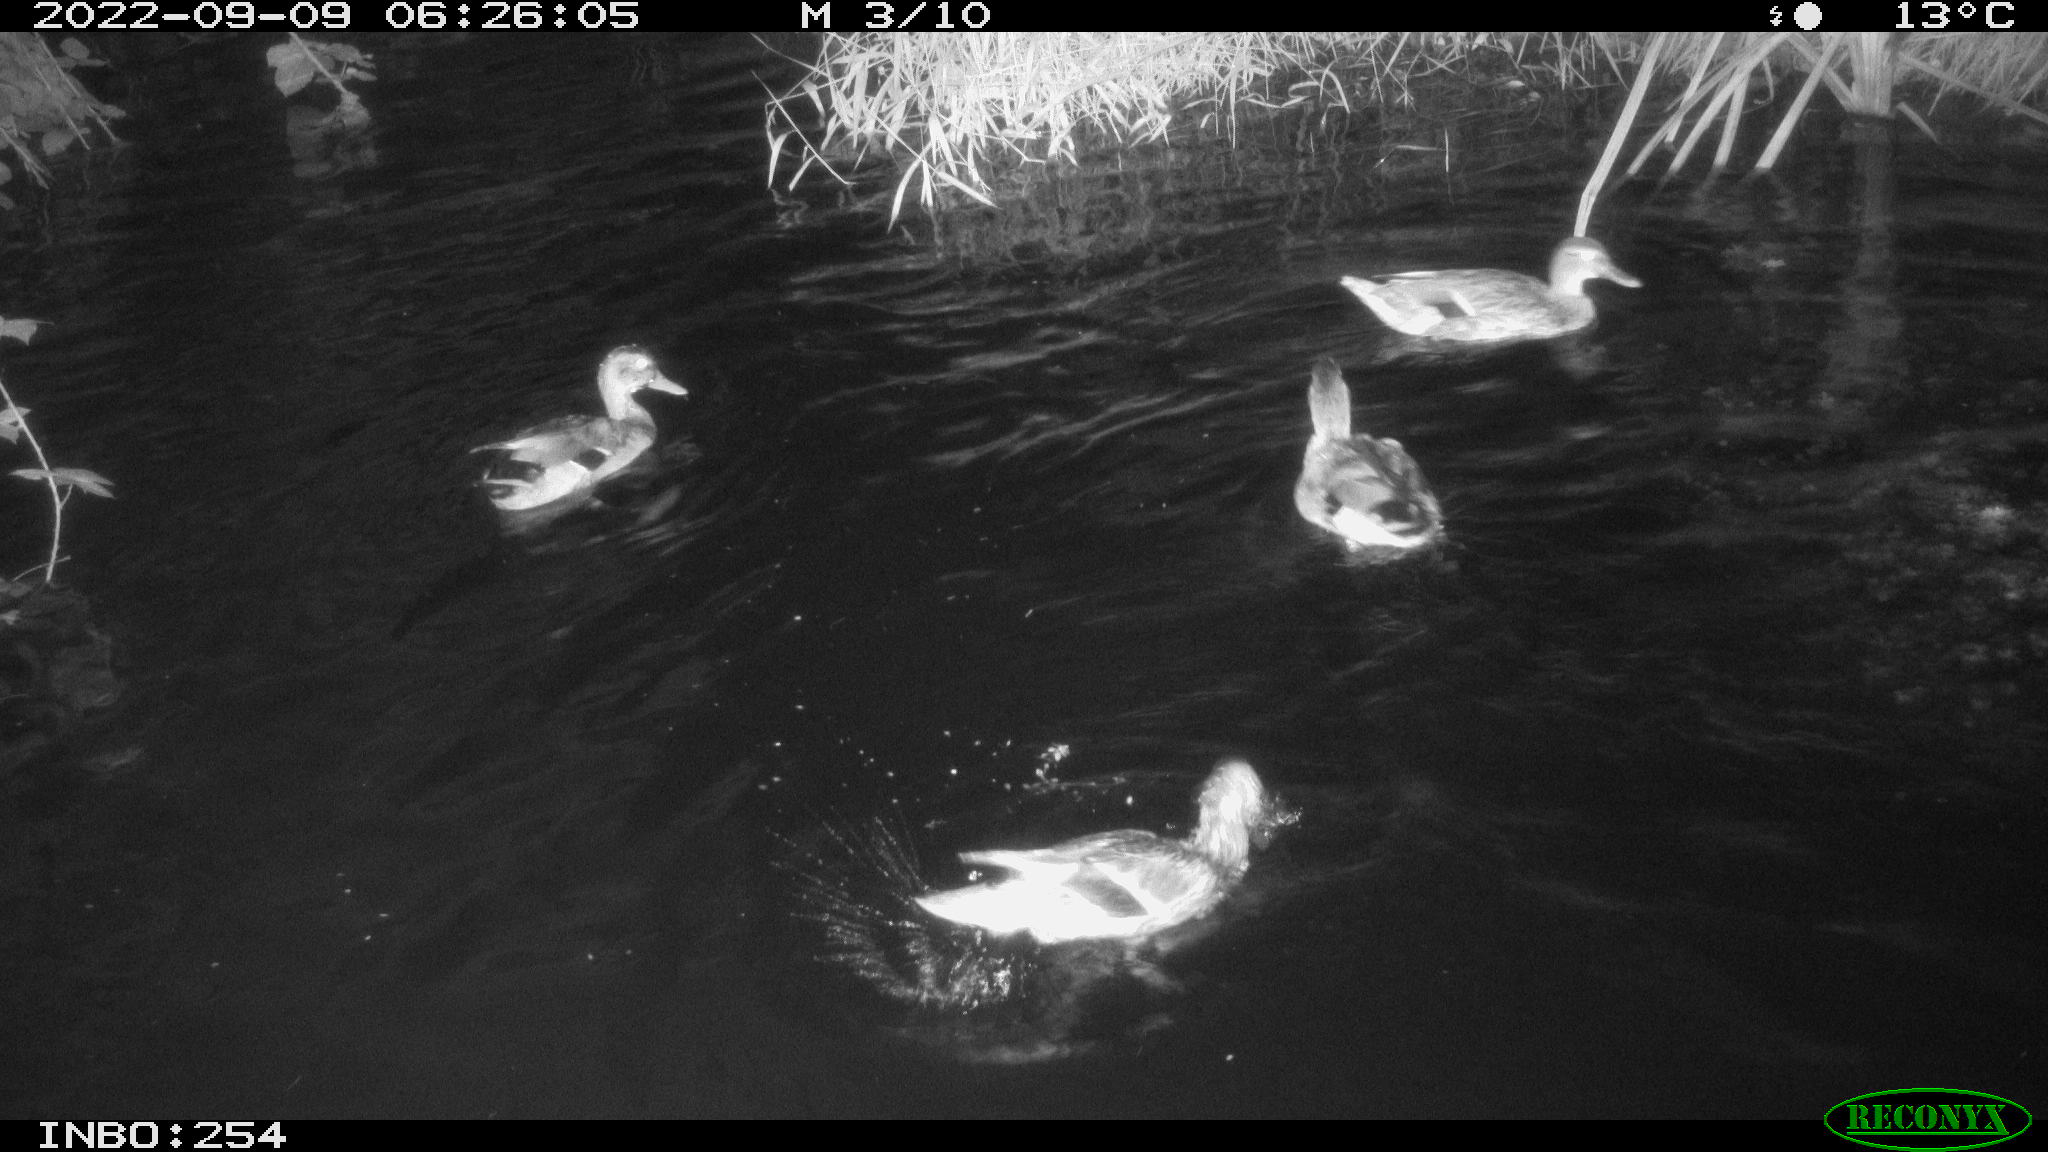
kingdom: Animalia
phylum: Chordata
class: Aves
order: Anseriformes
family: Anatidae
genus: Anas
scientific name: Anas platyrhynchos
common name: Mallard
